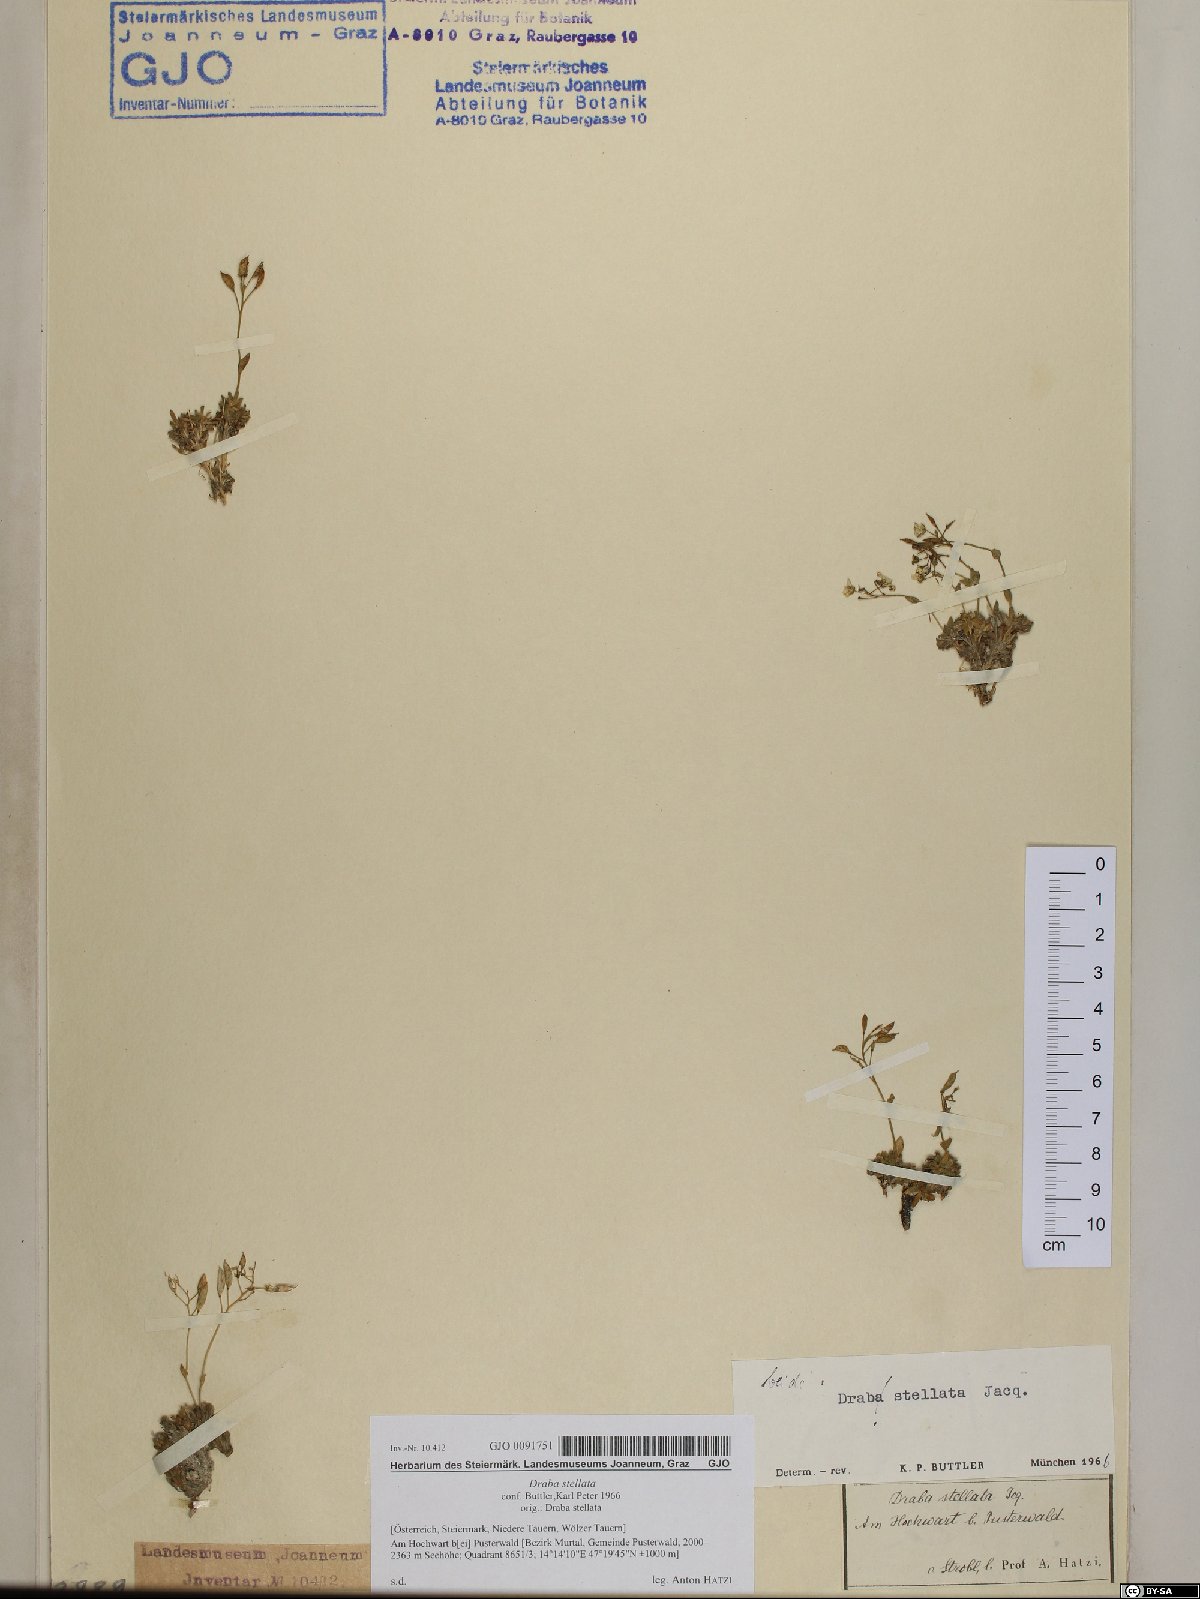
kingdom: Plantae
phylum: Tracheophyta
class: Magnoliopsida
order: Brassicales
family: Brassicaceae
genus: Draba
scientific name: Draba stellata
